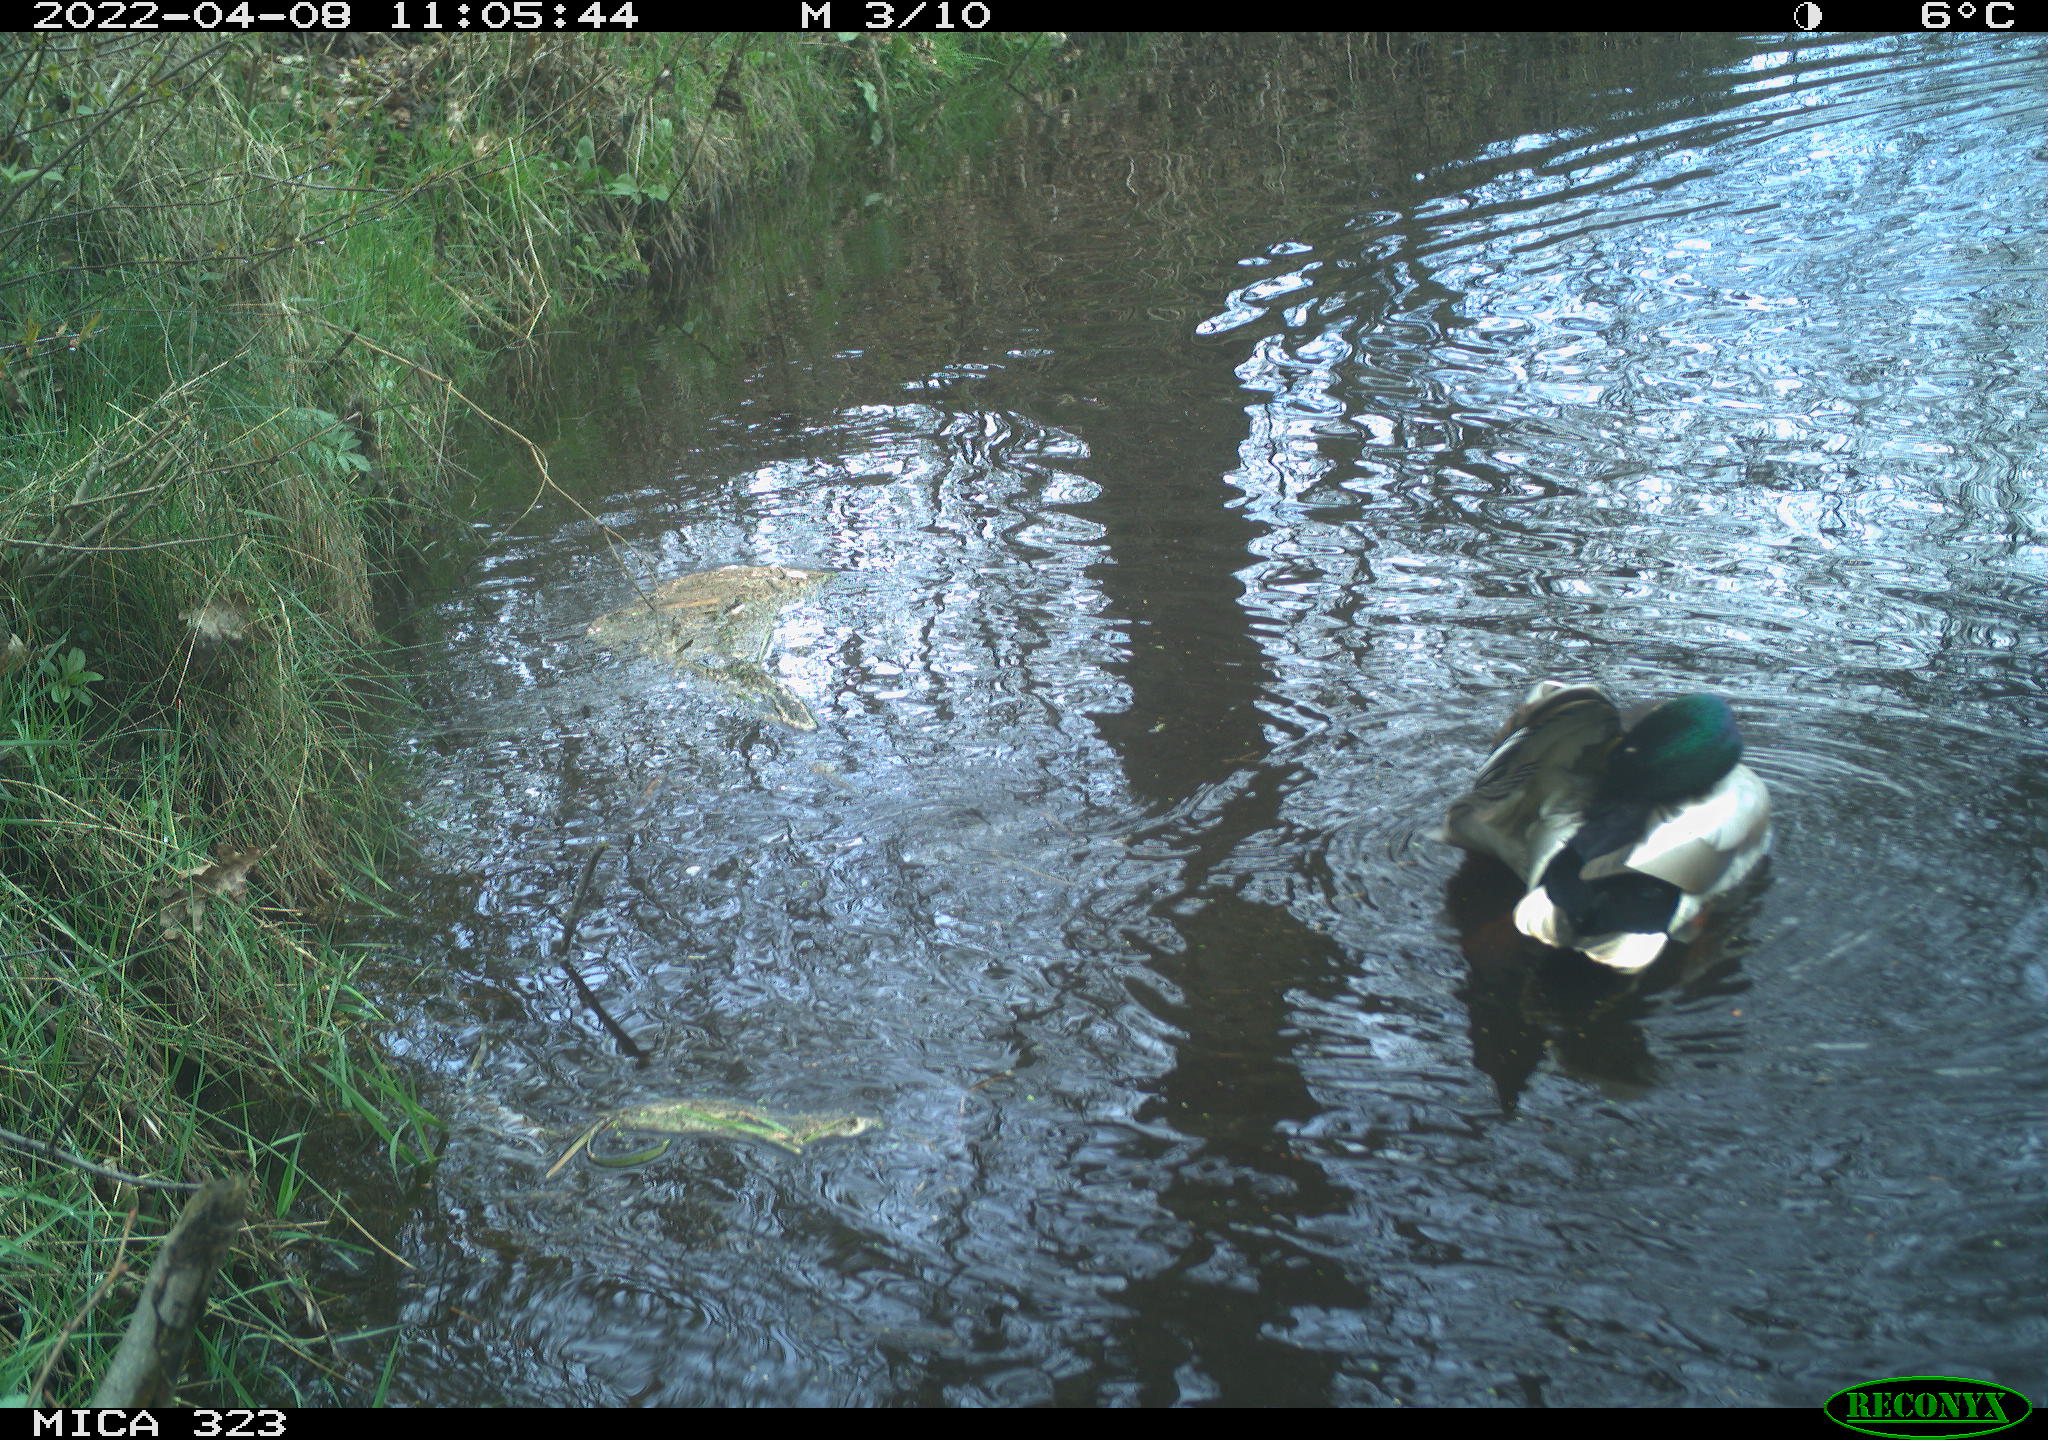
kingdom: Animalia
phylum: Chordata
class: Aves
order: Gruiformes
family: Rallidae
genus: Gallinula
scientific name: Gallinula chloropus
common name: Common moorhen
